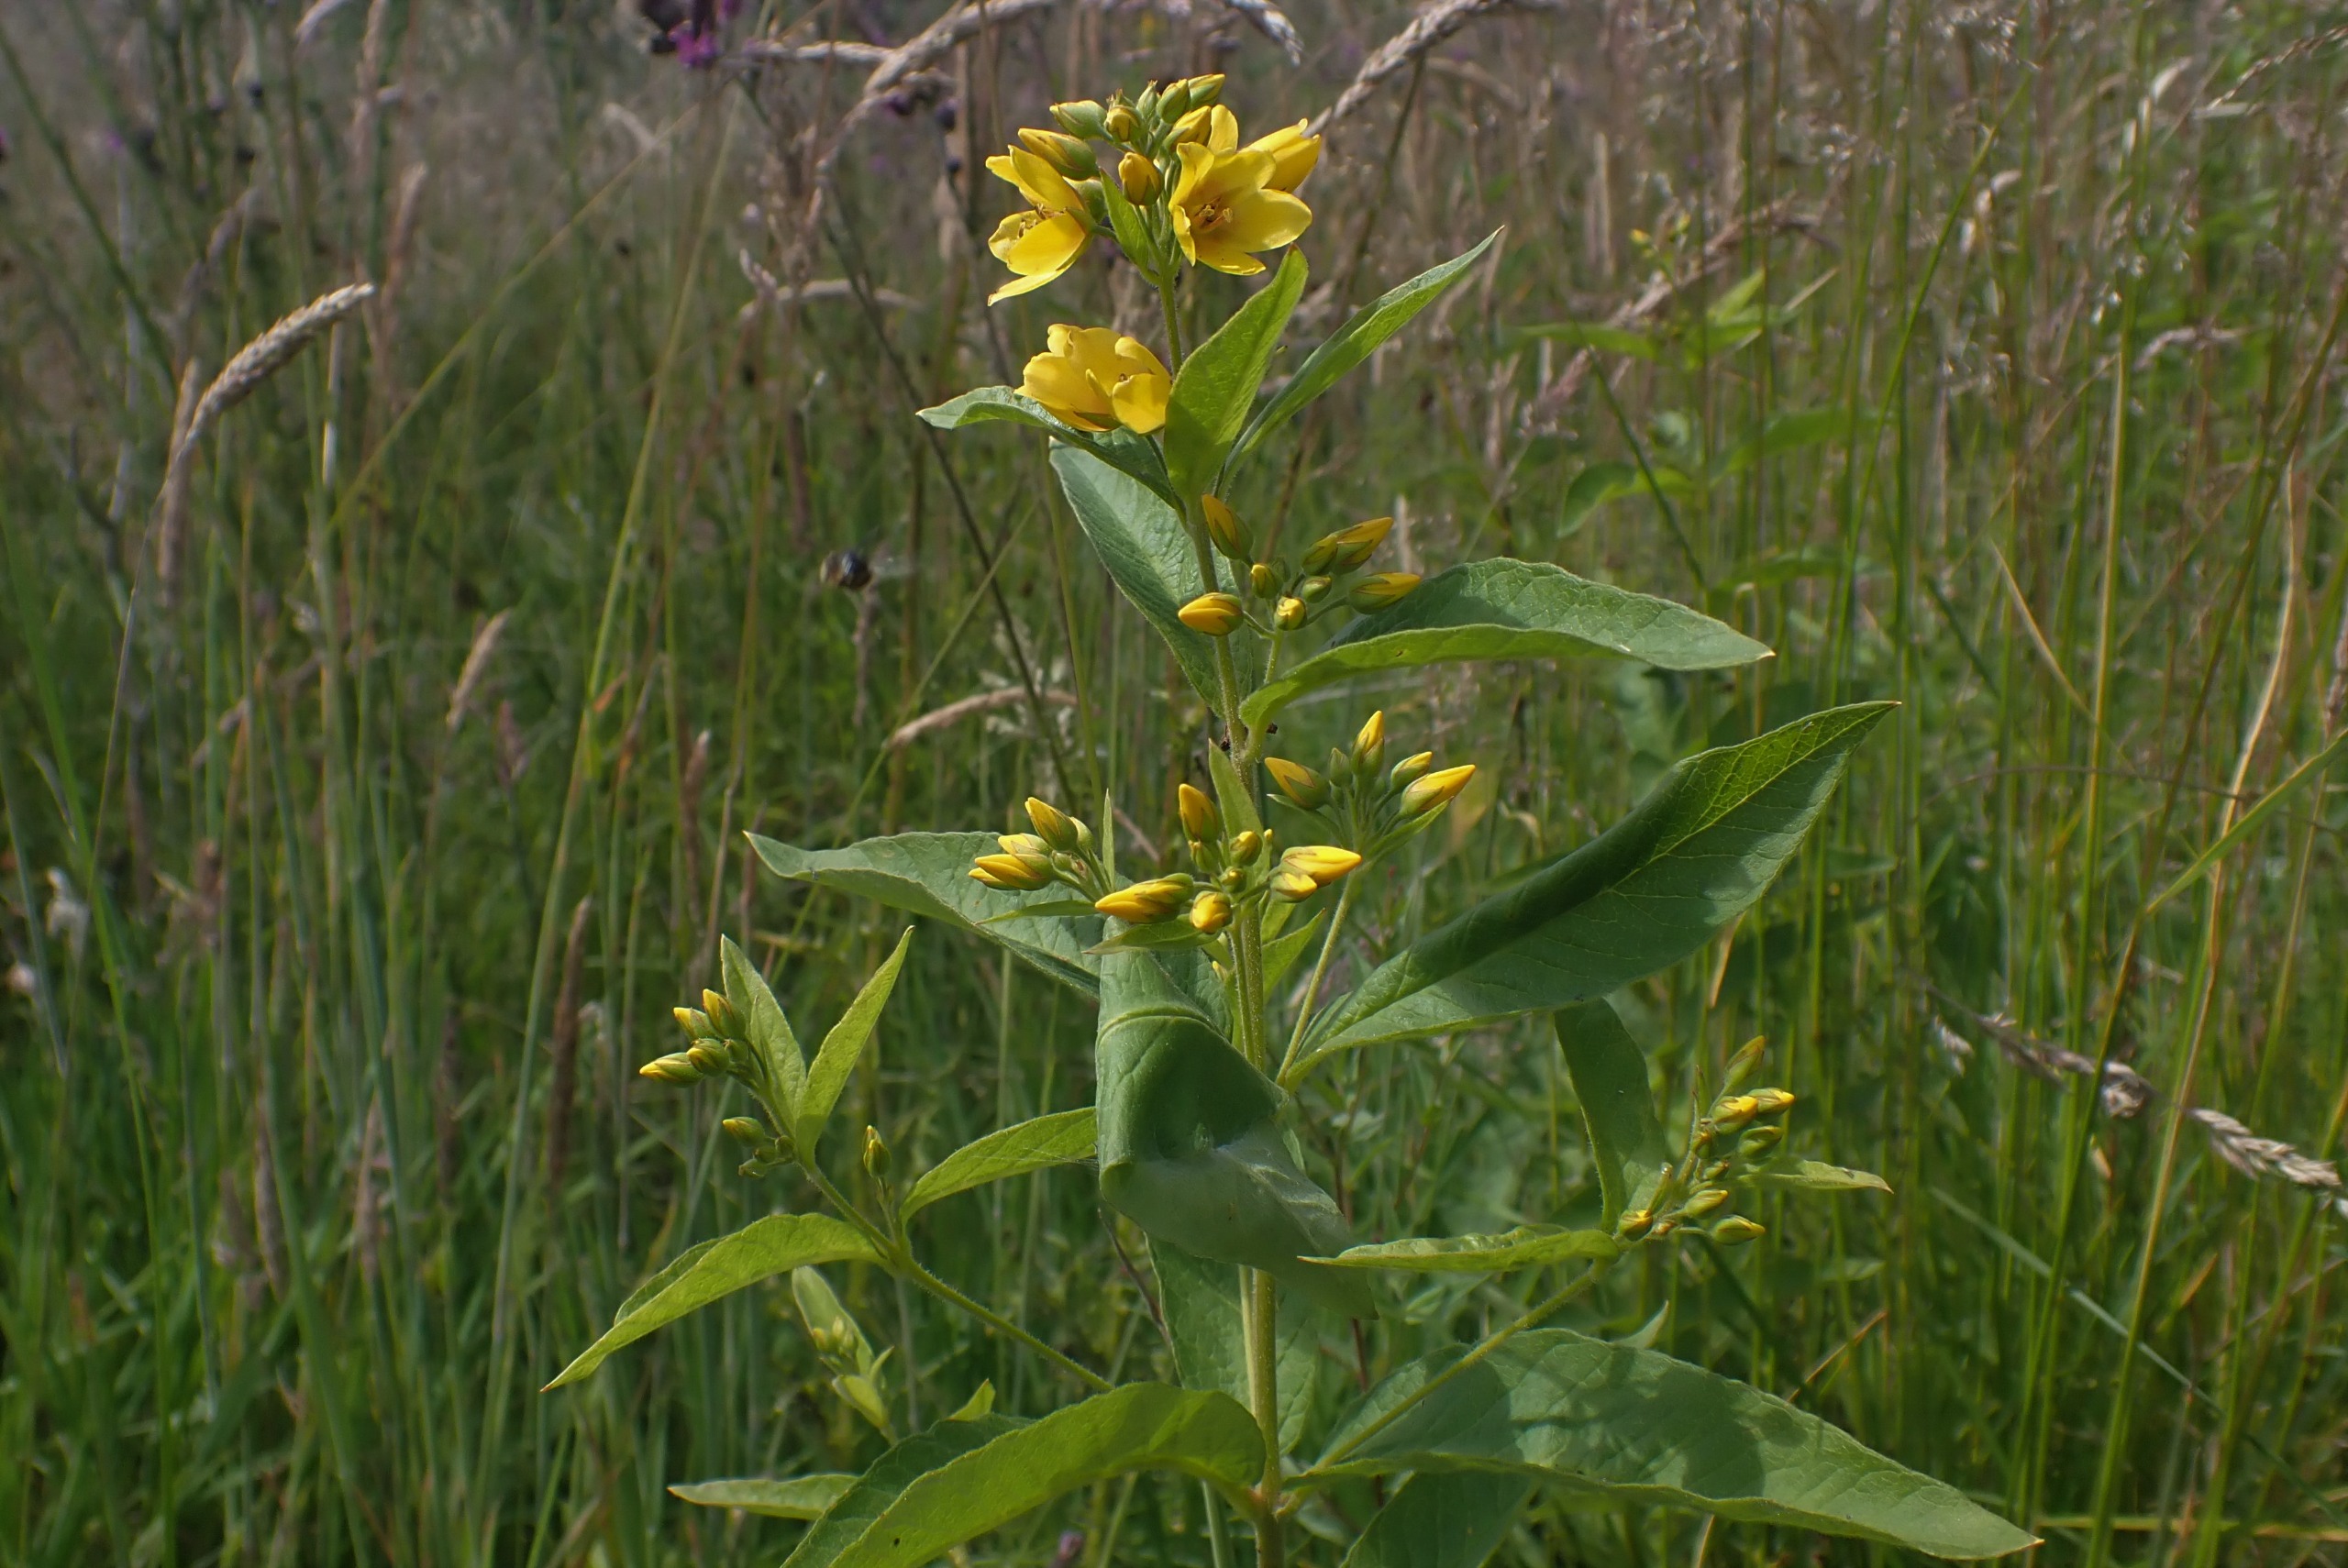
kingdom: Plantae
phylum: Tracheophyta
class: Magnoliopsida
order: Ericales
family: Primulaceae
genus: Lysimachia
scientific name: Lysimachia vulgaris
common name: Almindelig fredløs
